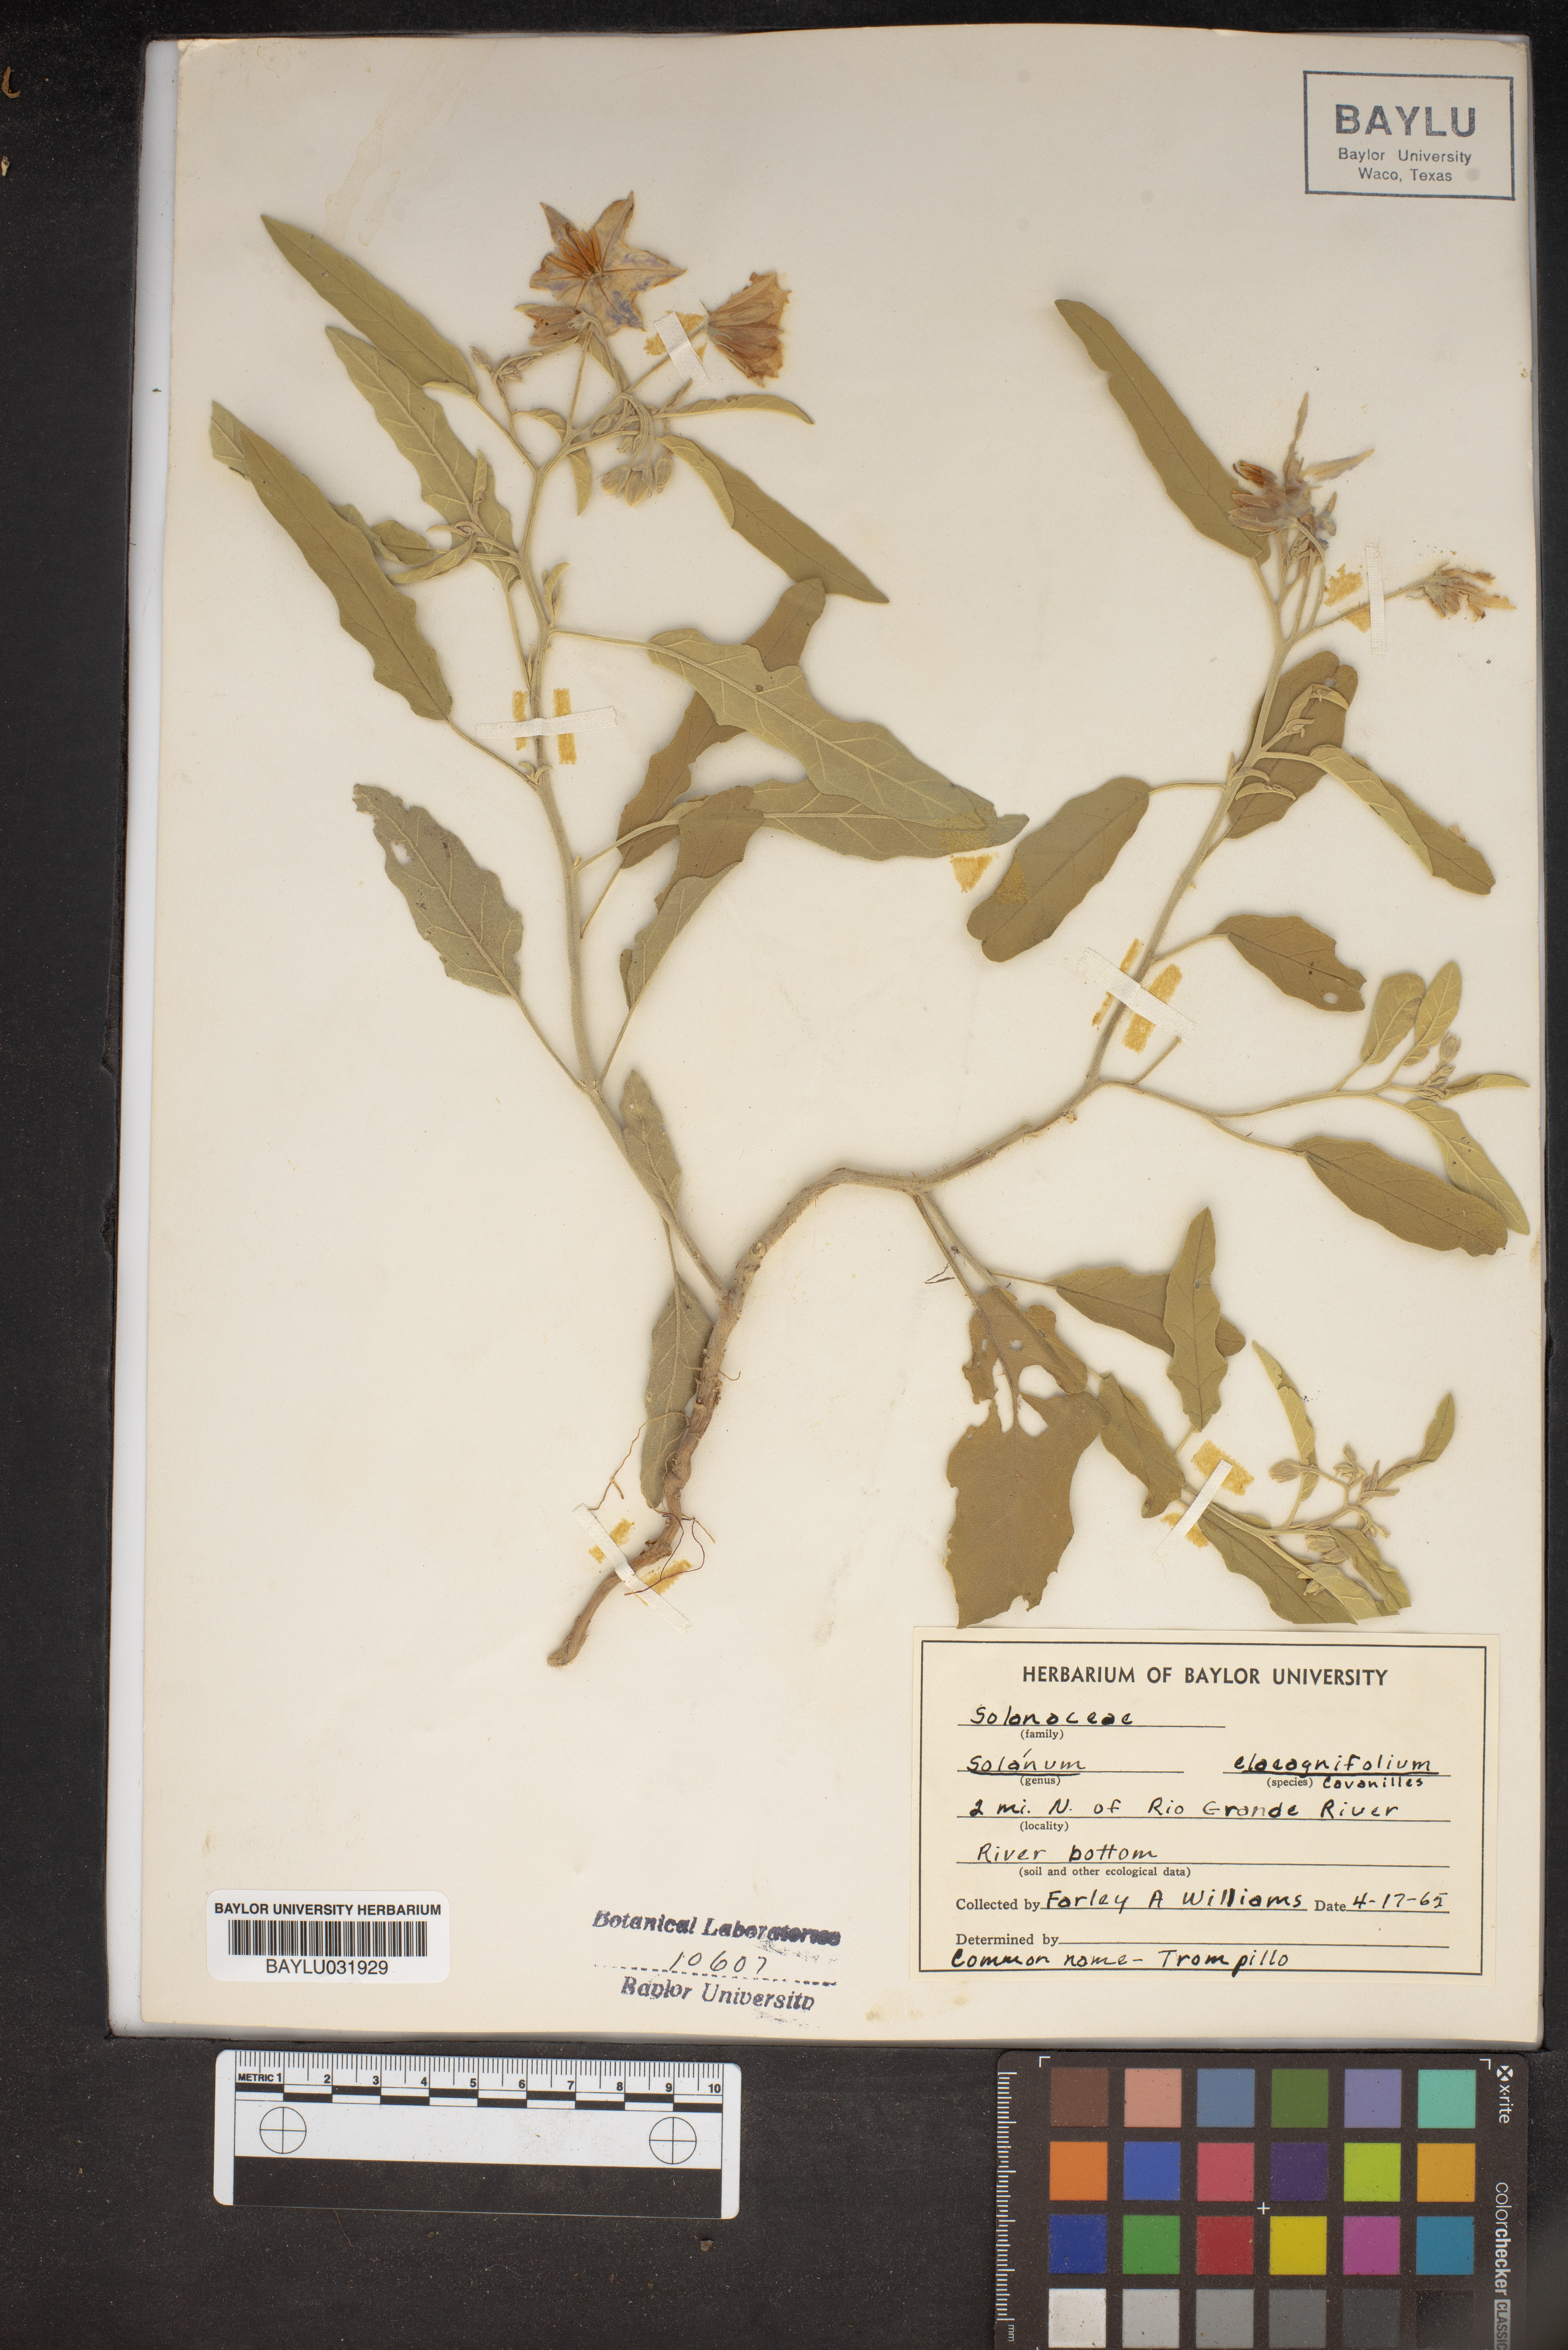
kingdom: Plantae
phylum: Tracheophyta
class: Magnoliopsida
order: Solanales
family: Solanaceae
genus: Solanum
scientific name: Solanum elaeagnifolium
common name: Silverleaf nightshade
